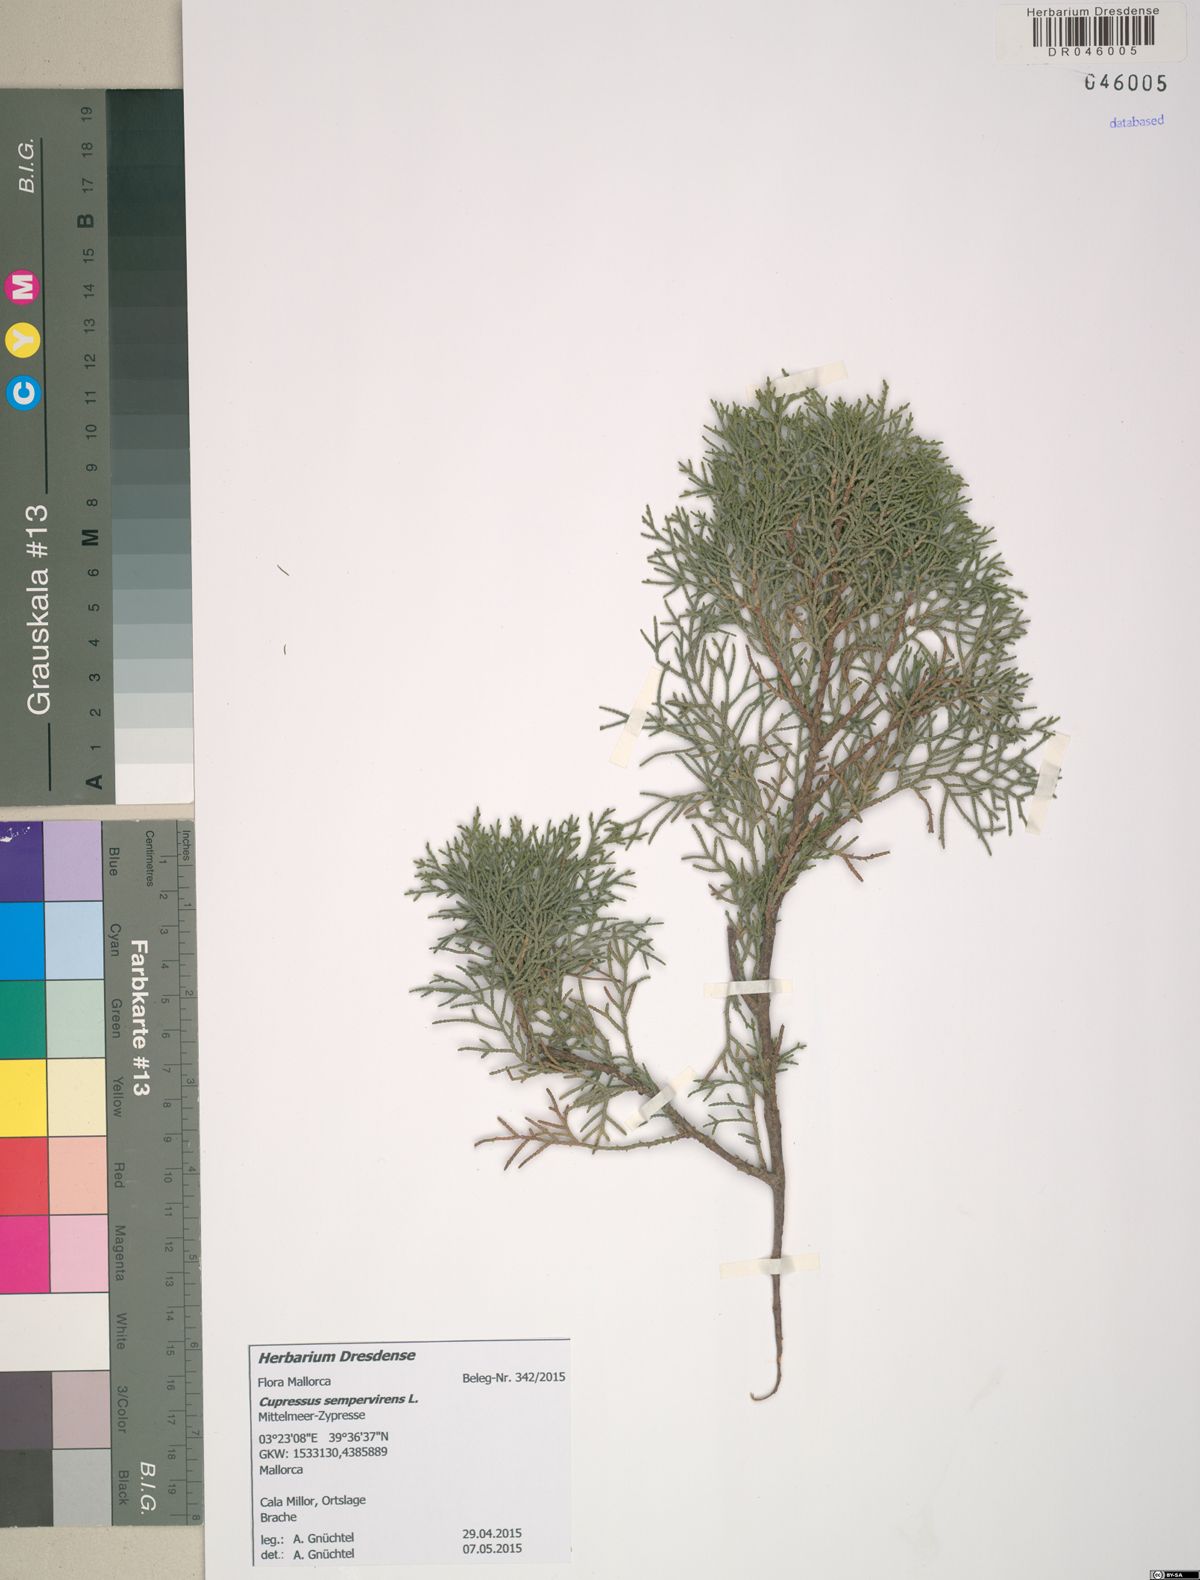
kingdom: Plantae
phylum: Tracheophyta
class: Pinopsida
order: Pinales
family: Cupressaceae
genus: Cupressus
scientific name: Cupressus sempervirens
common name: Italian cypress
